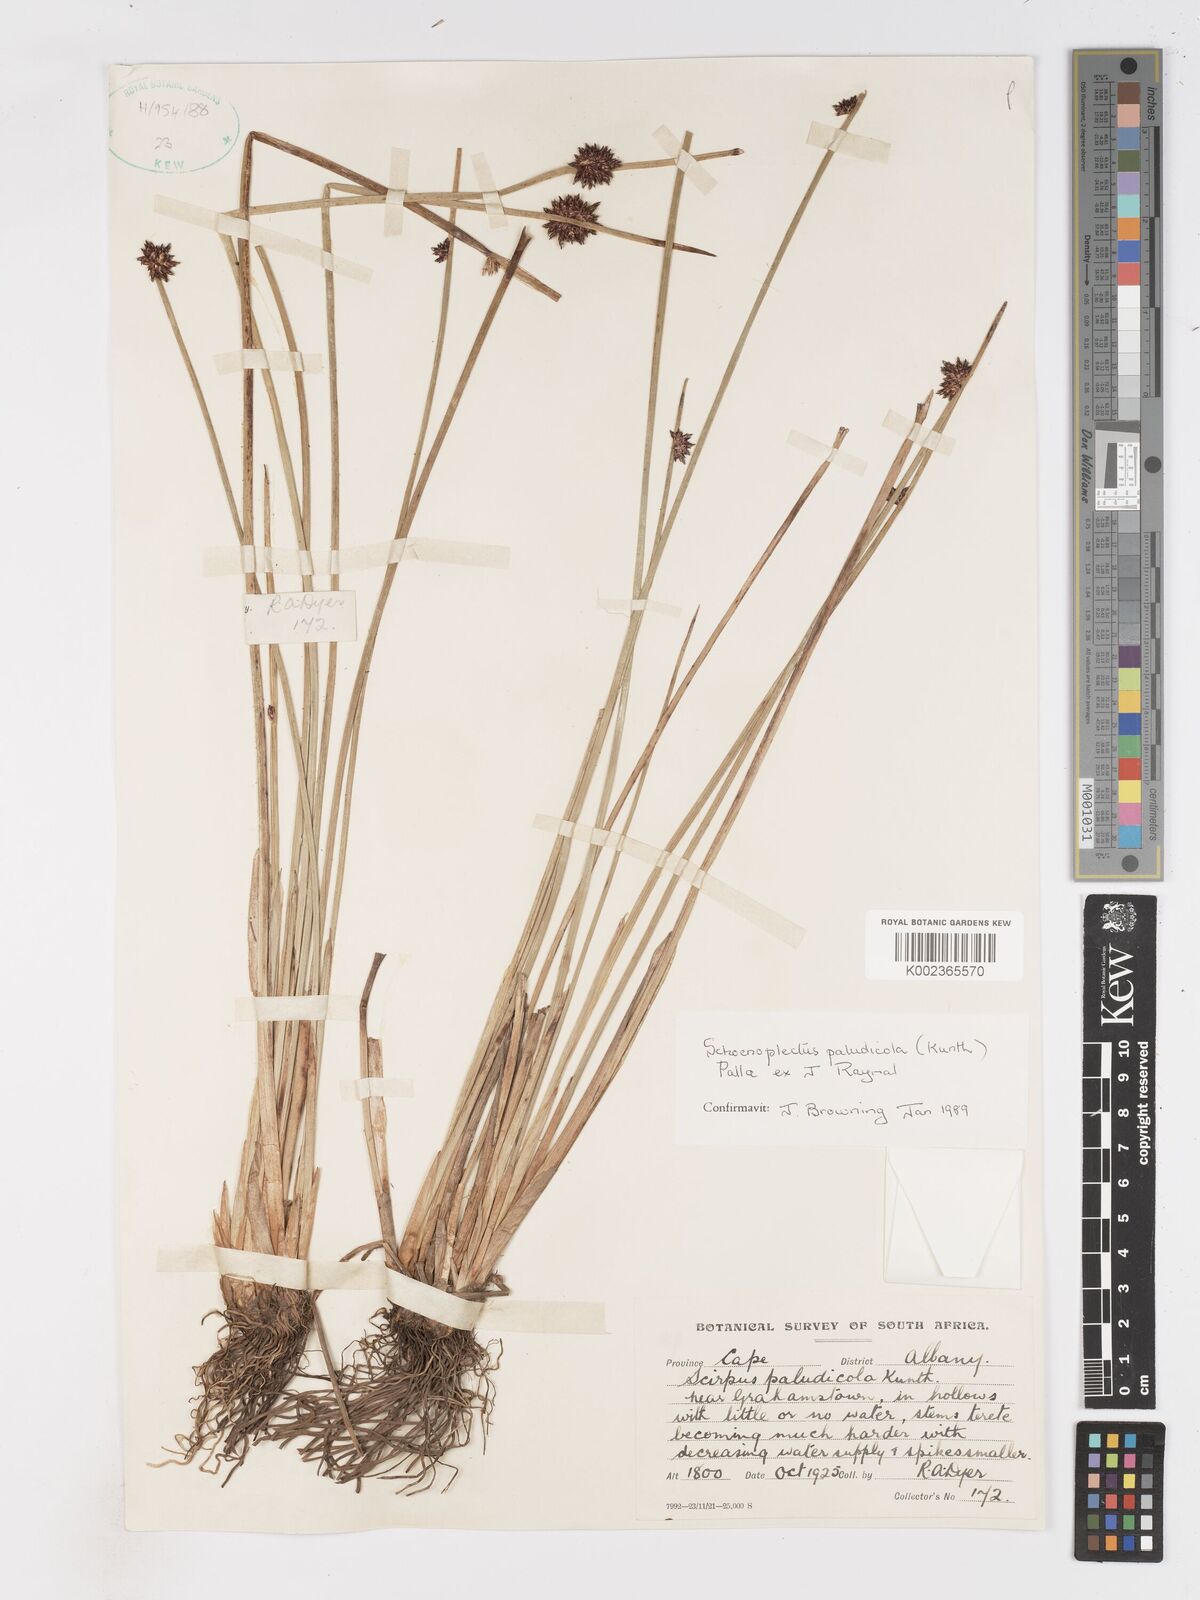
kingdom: Plantae
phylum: Tracheophyta
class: Liliopsida
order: Poales
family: Cyperaceae
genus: Schoenoplectiella
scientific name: Schoenoplectiella paludicola
